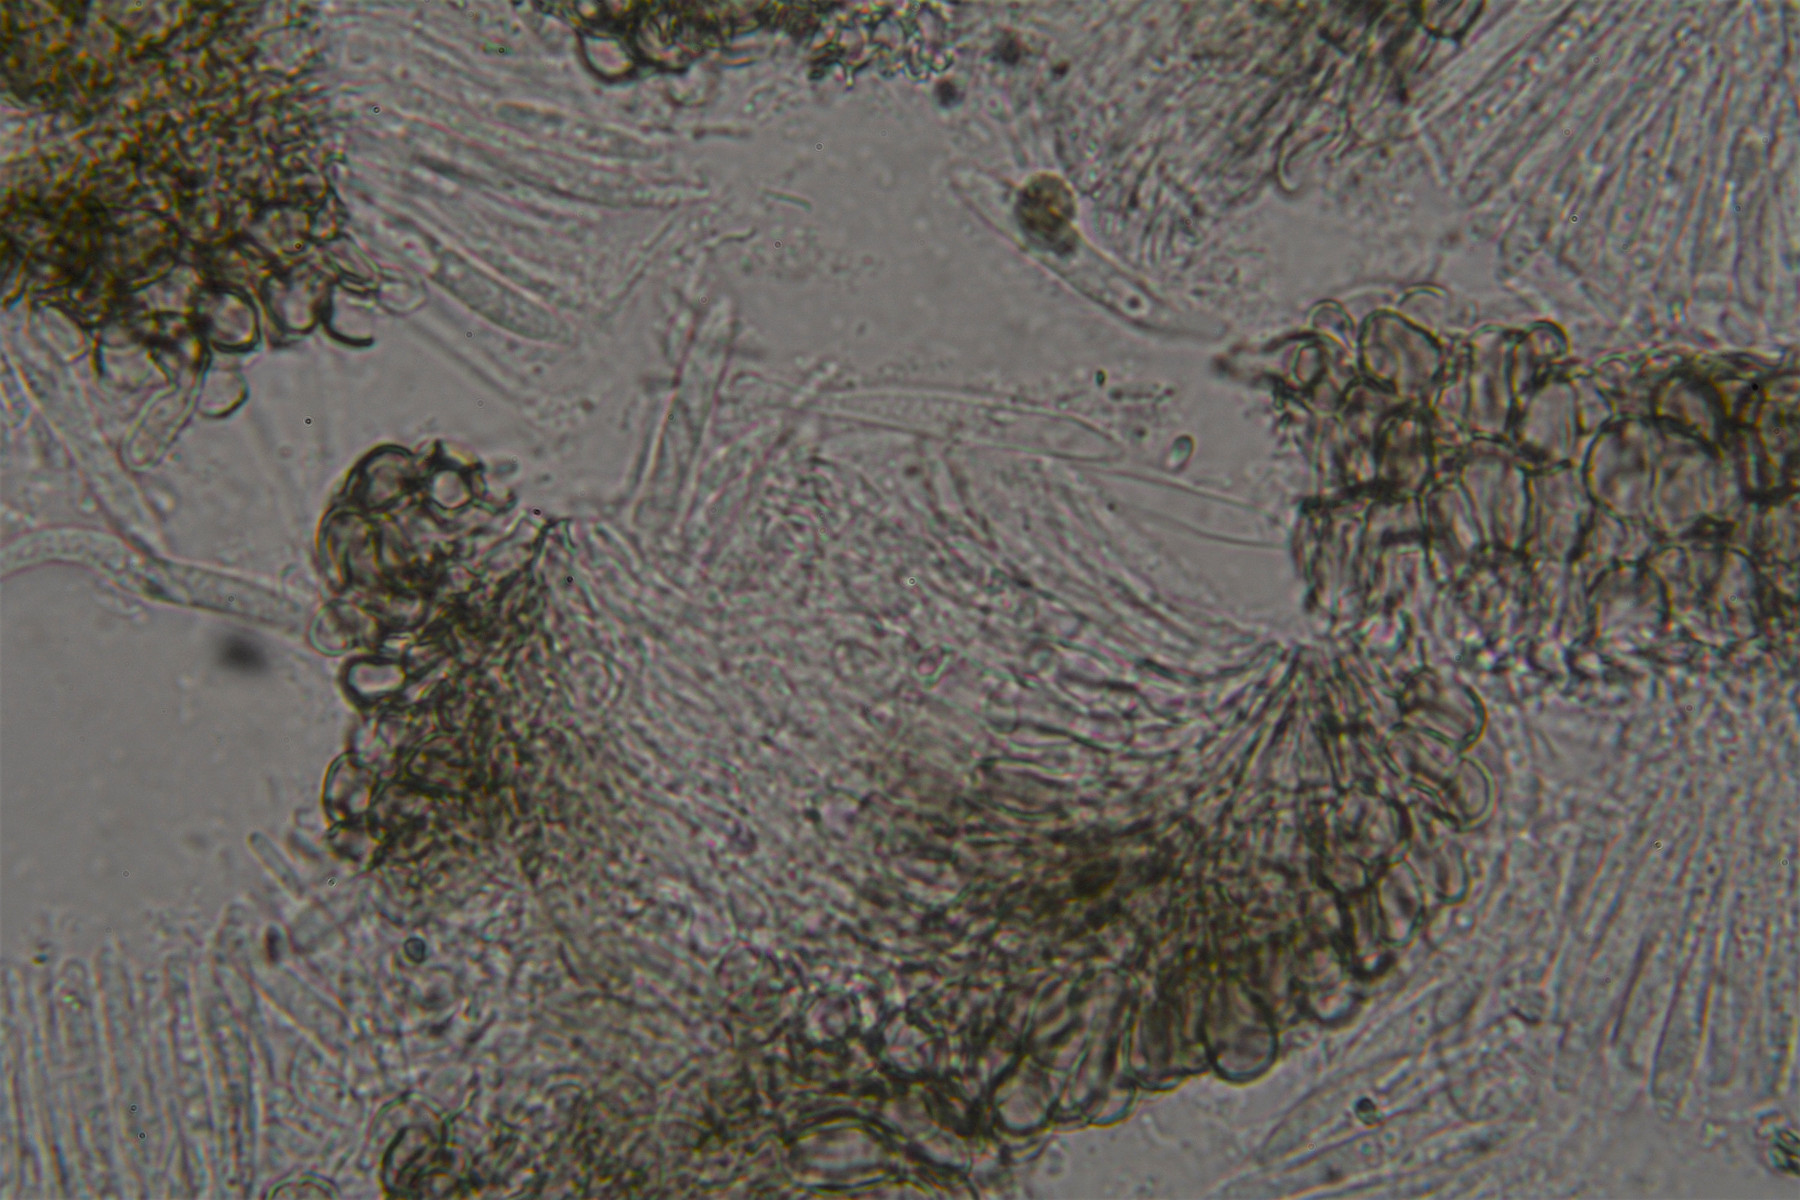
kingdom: Fungi
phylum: Ascomycota
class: Leotiomycetes
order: Helotiales
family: Ploettnerulaceae
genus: Pyrenopeziza
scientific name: Pyrenopeziza digitalina
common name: fingerbøl-kerneskive
